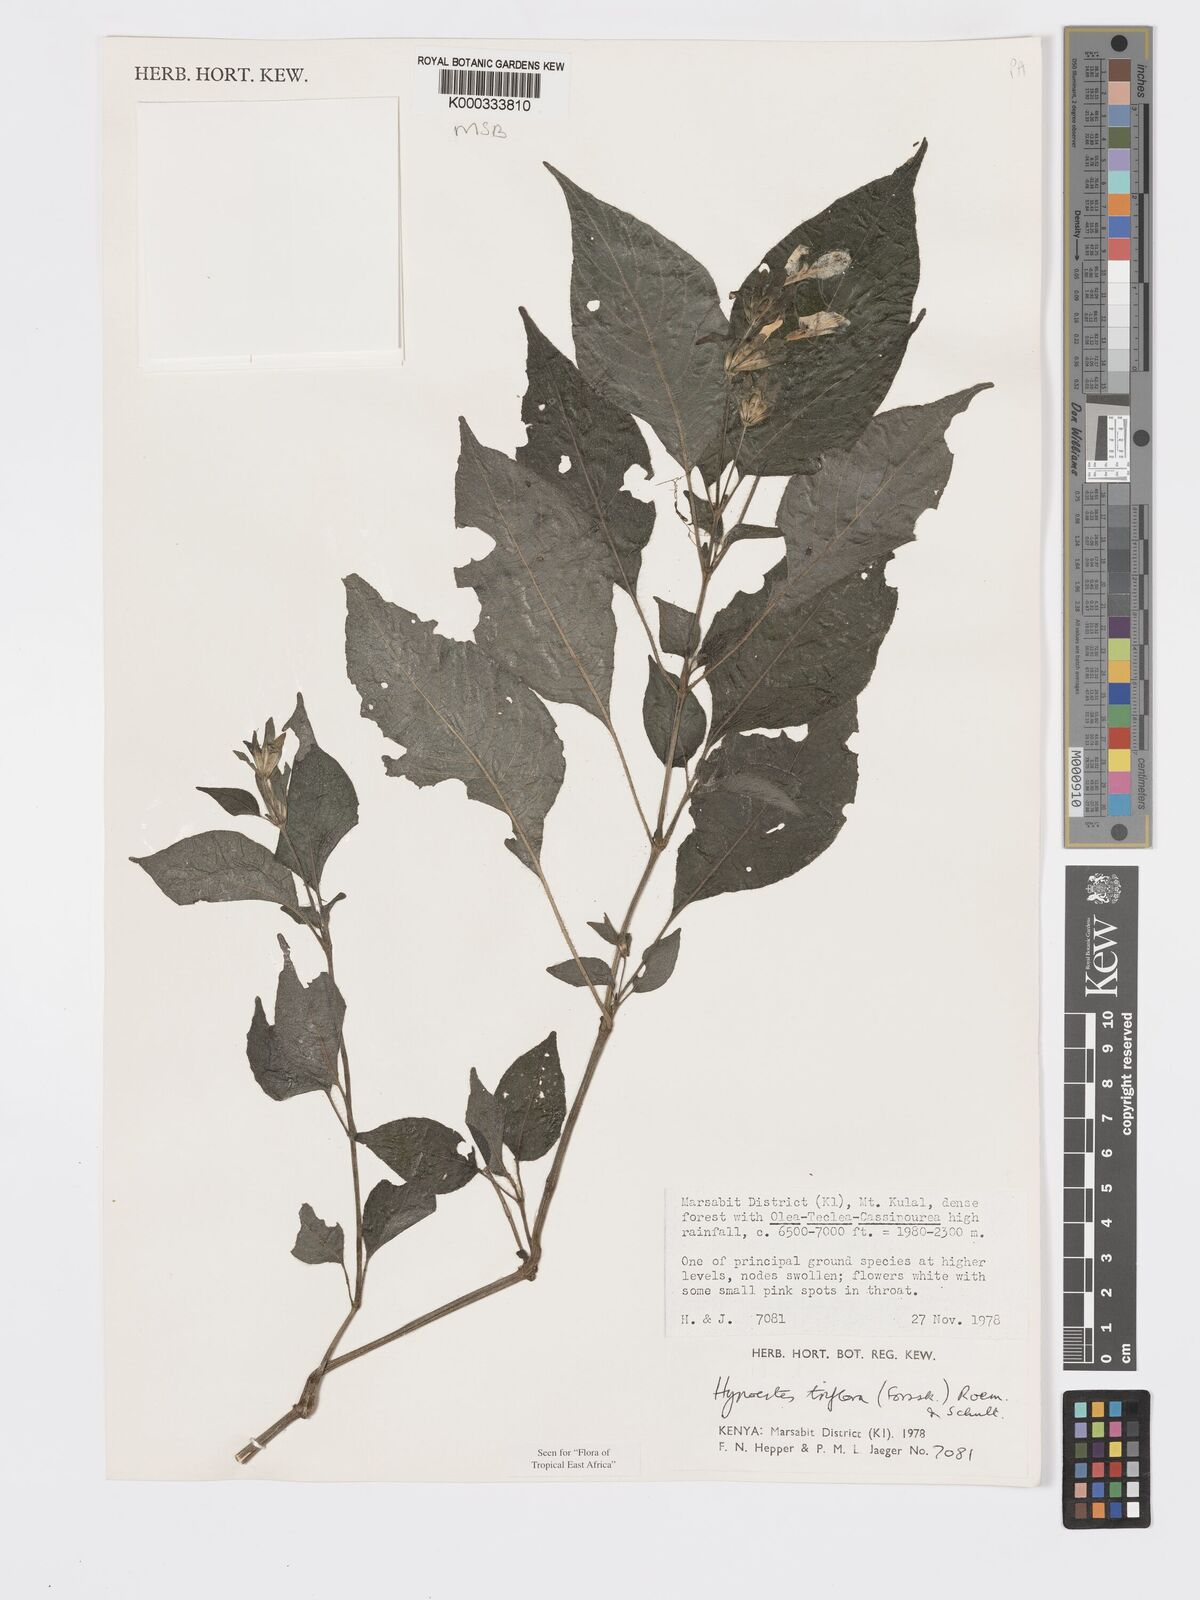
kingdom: Plantae
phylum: Tracheophyta
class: Magnoliopsida
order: Lamiales
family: Acanthaceae
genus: Hypoestes
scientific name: Hypoestes triflora
